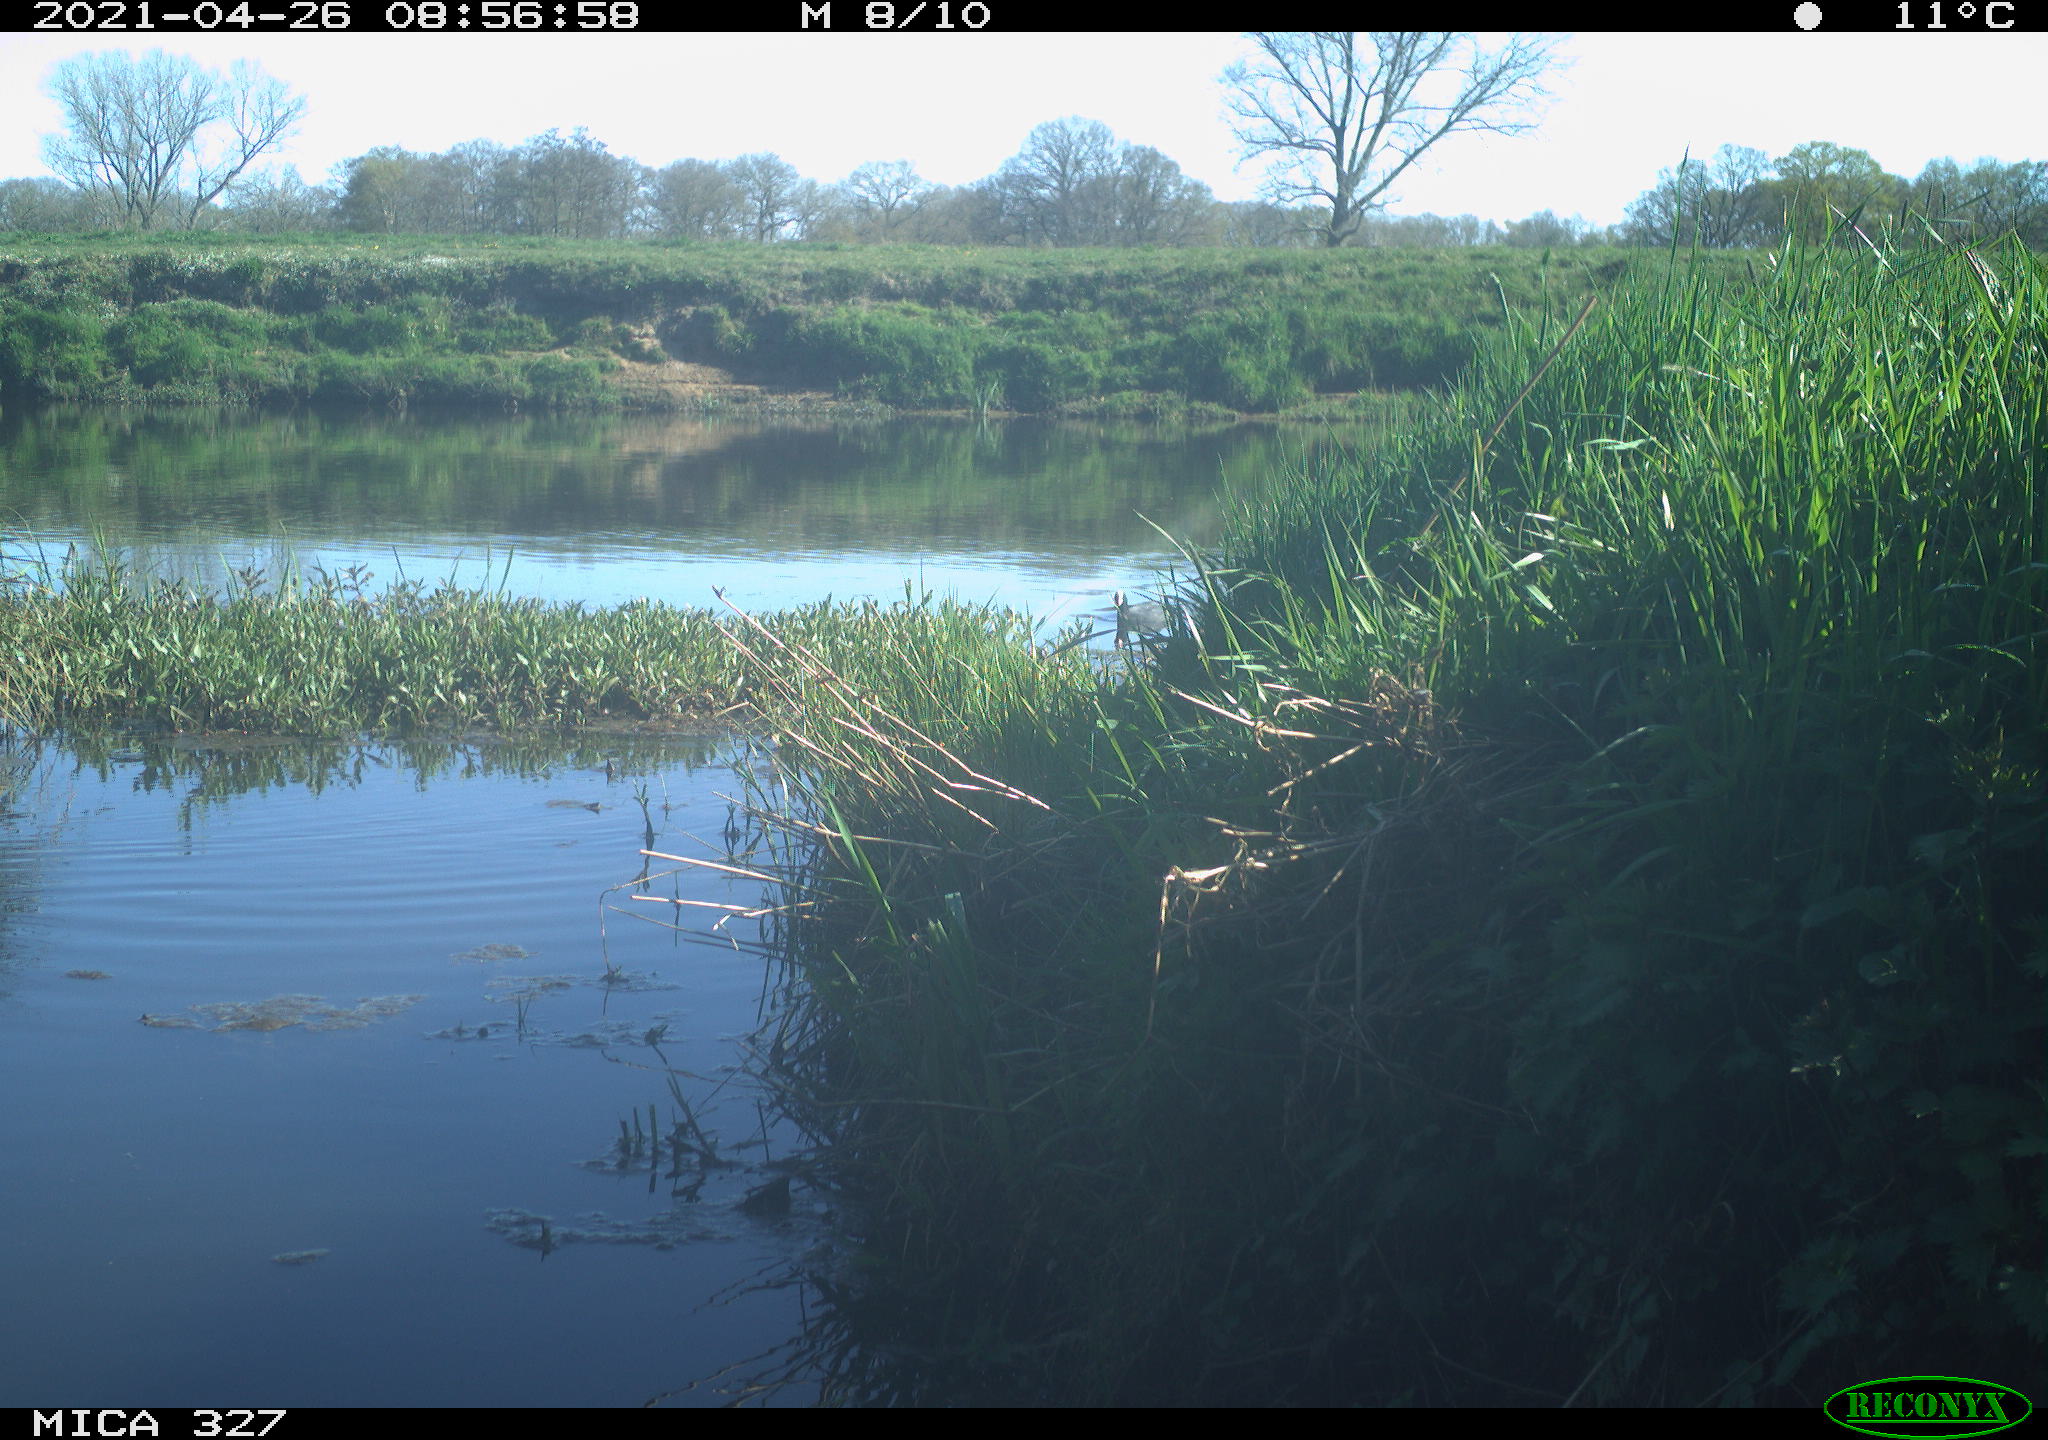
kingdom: Animalia
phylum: Chordata
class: Aves
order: Gruiformes
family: Rallidae
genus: Fulica
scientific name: Fulica atra
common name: Eurasian coot
